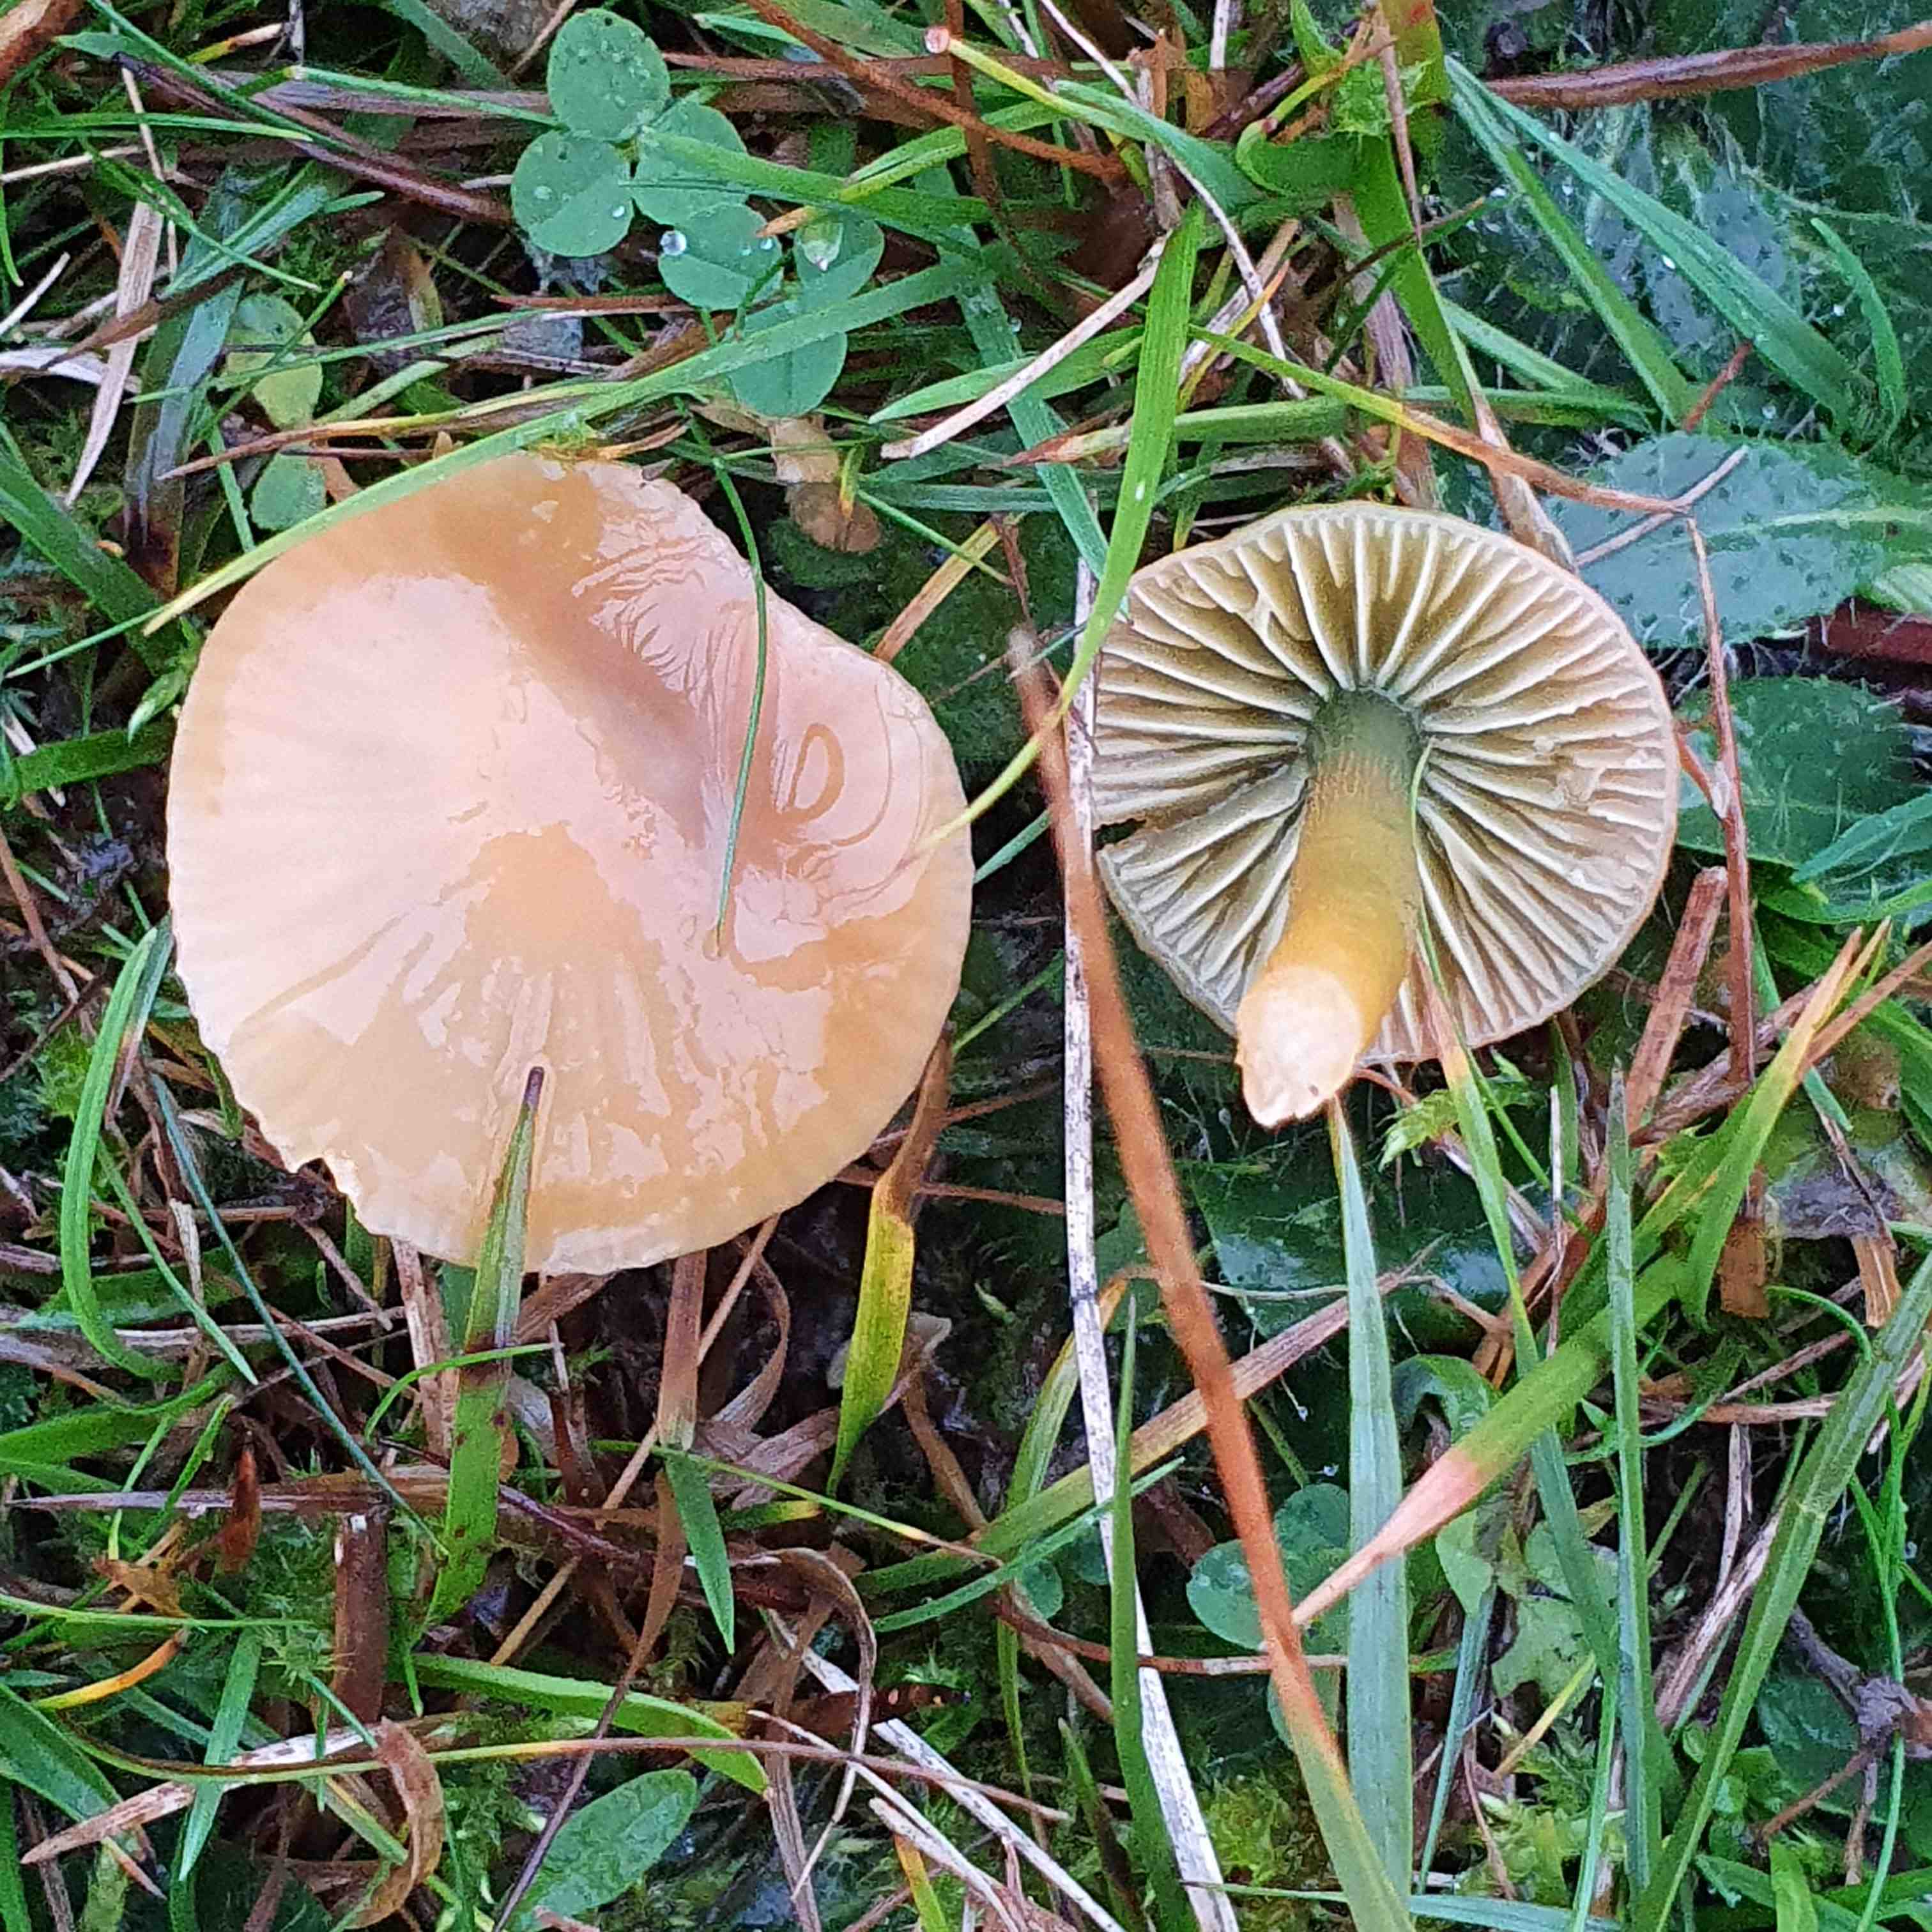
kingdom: Fungi
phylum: Basidiomycota
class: Agaricomycetes
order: Agaricales
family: Hygrophoraceae
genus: Gliophorus
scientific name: Gliophorus psittacinus
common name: papegøje-vokshat
